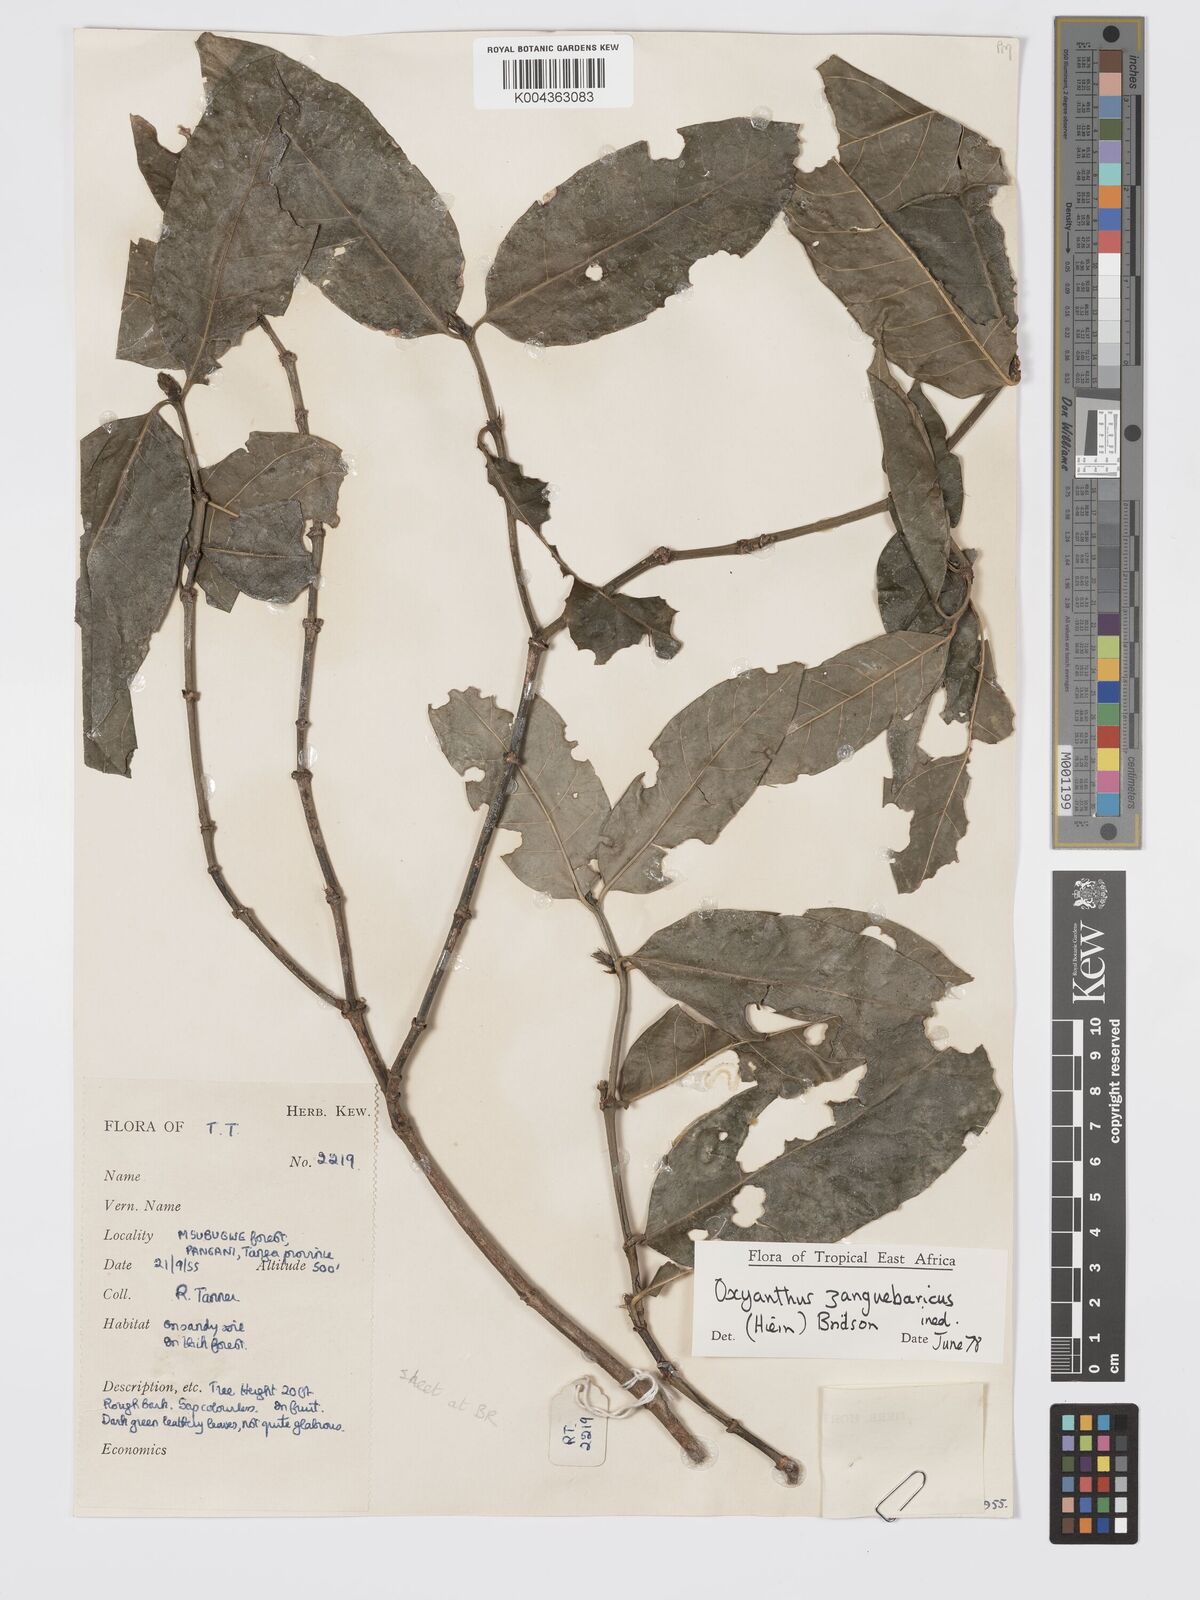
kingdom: Plantae
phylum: Tracheophyta
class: Magnoliopsida
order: Gentianales
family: Rubiaceae
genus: Oxyanthus
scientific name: Oxyanthus zanguebaricus
